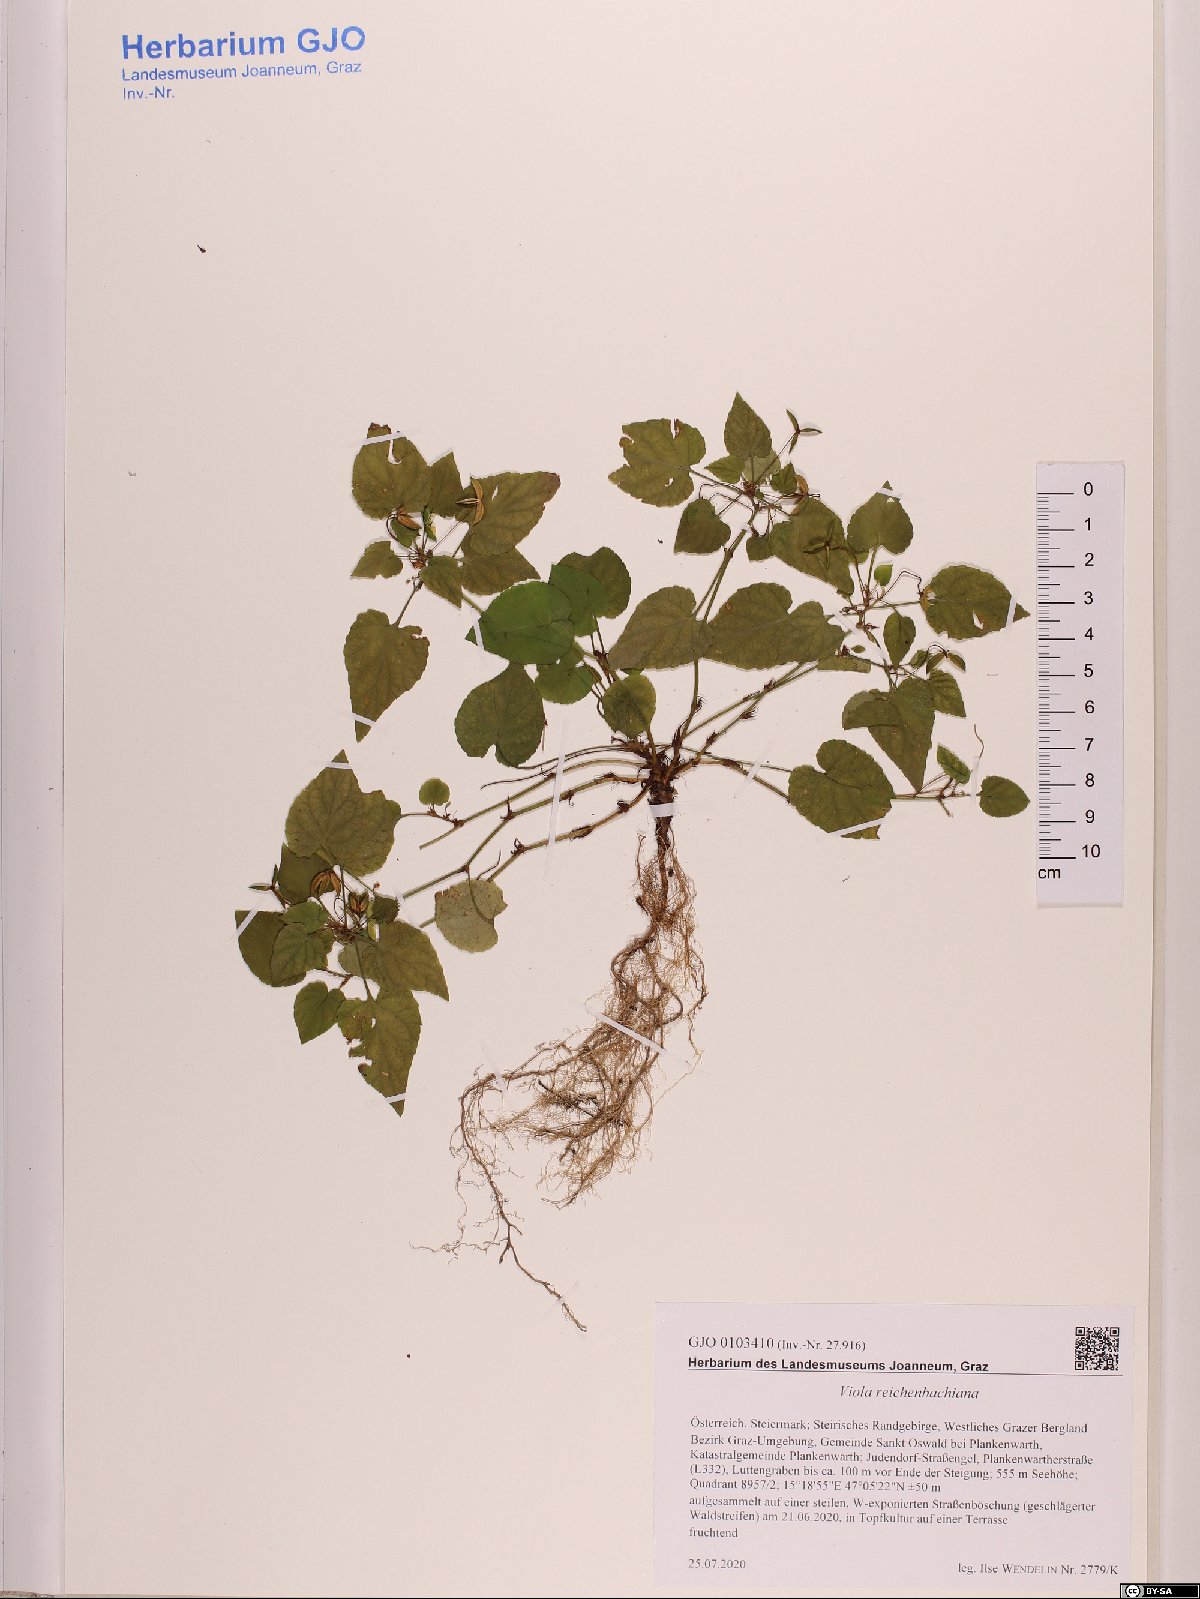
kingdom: Plantae
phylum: Tracheophyta
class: Magnoliopsida
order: Malpighiales
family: Violaceae
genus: Viola
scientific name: Viola reichenbachiana
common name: Early dog-violet
